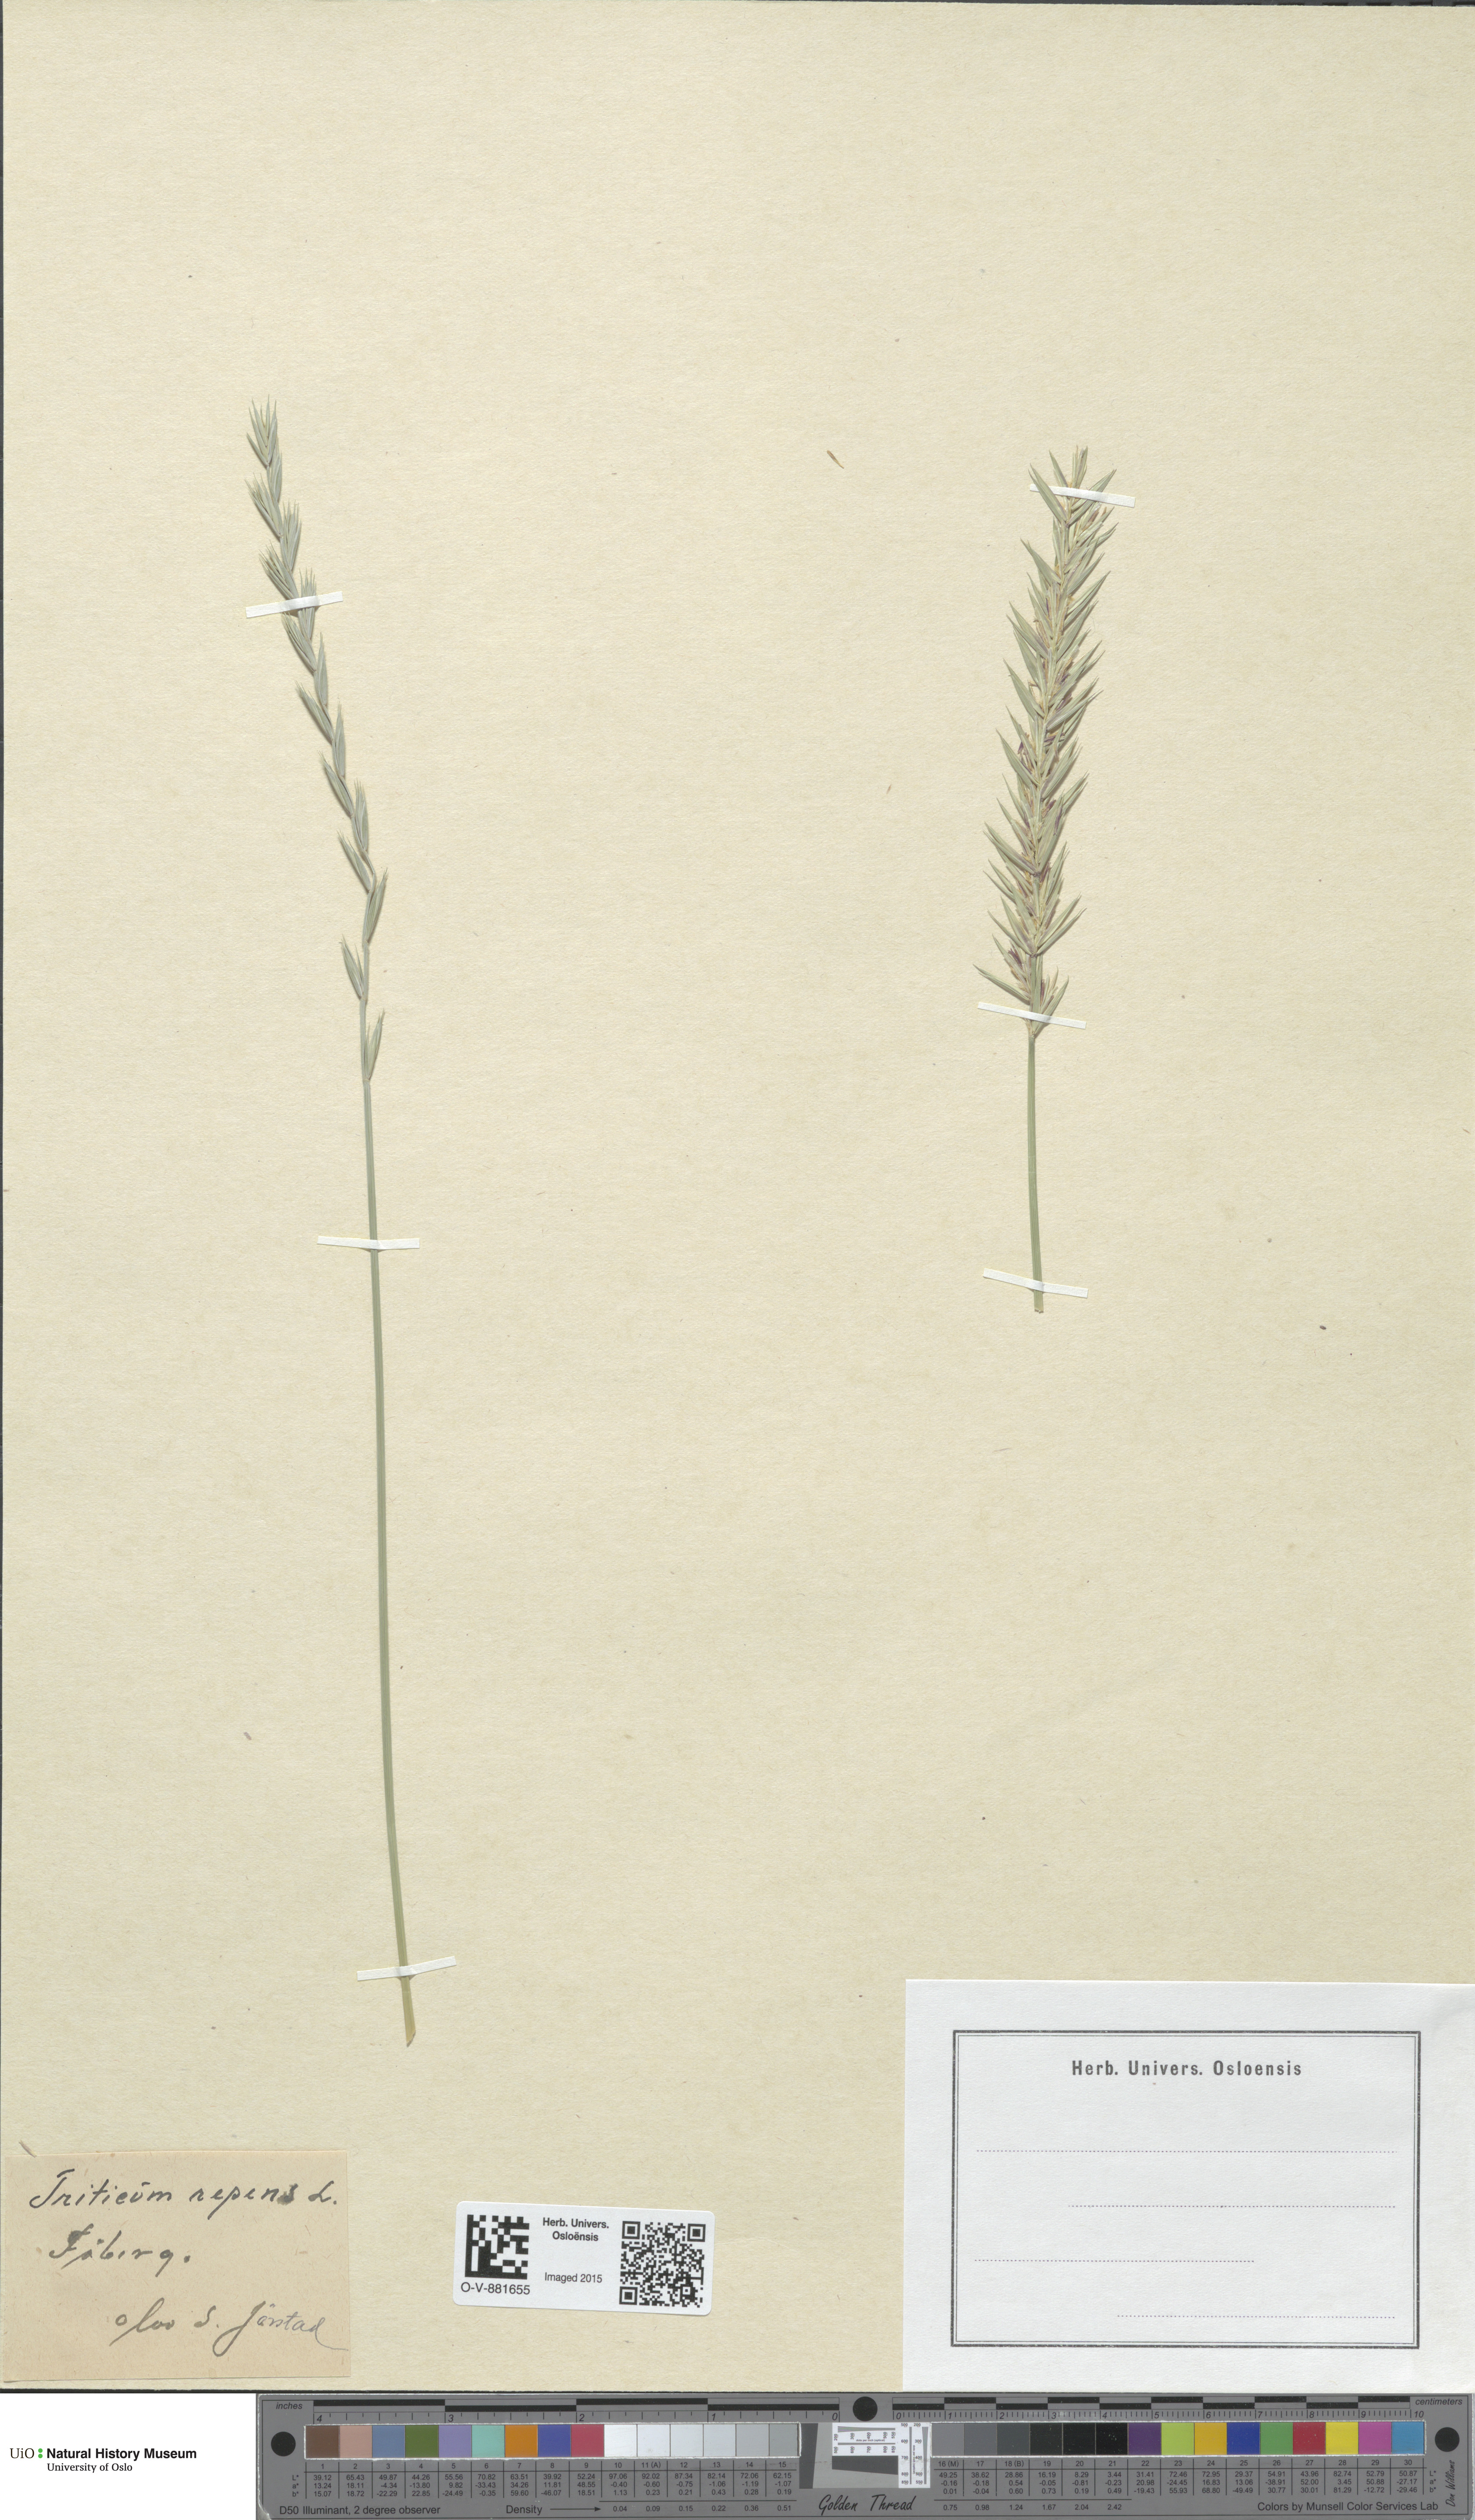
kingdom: Plantae
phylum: Tracheophyta
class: Liliopsida
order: Poales
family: Poaceae
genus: Elymus
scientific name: Elymus repens
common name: Quackgrass
